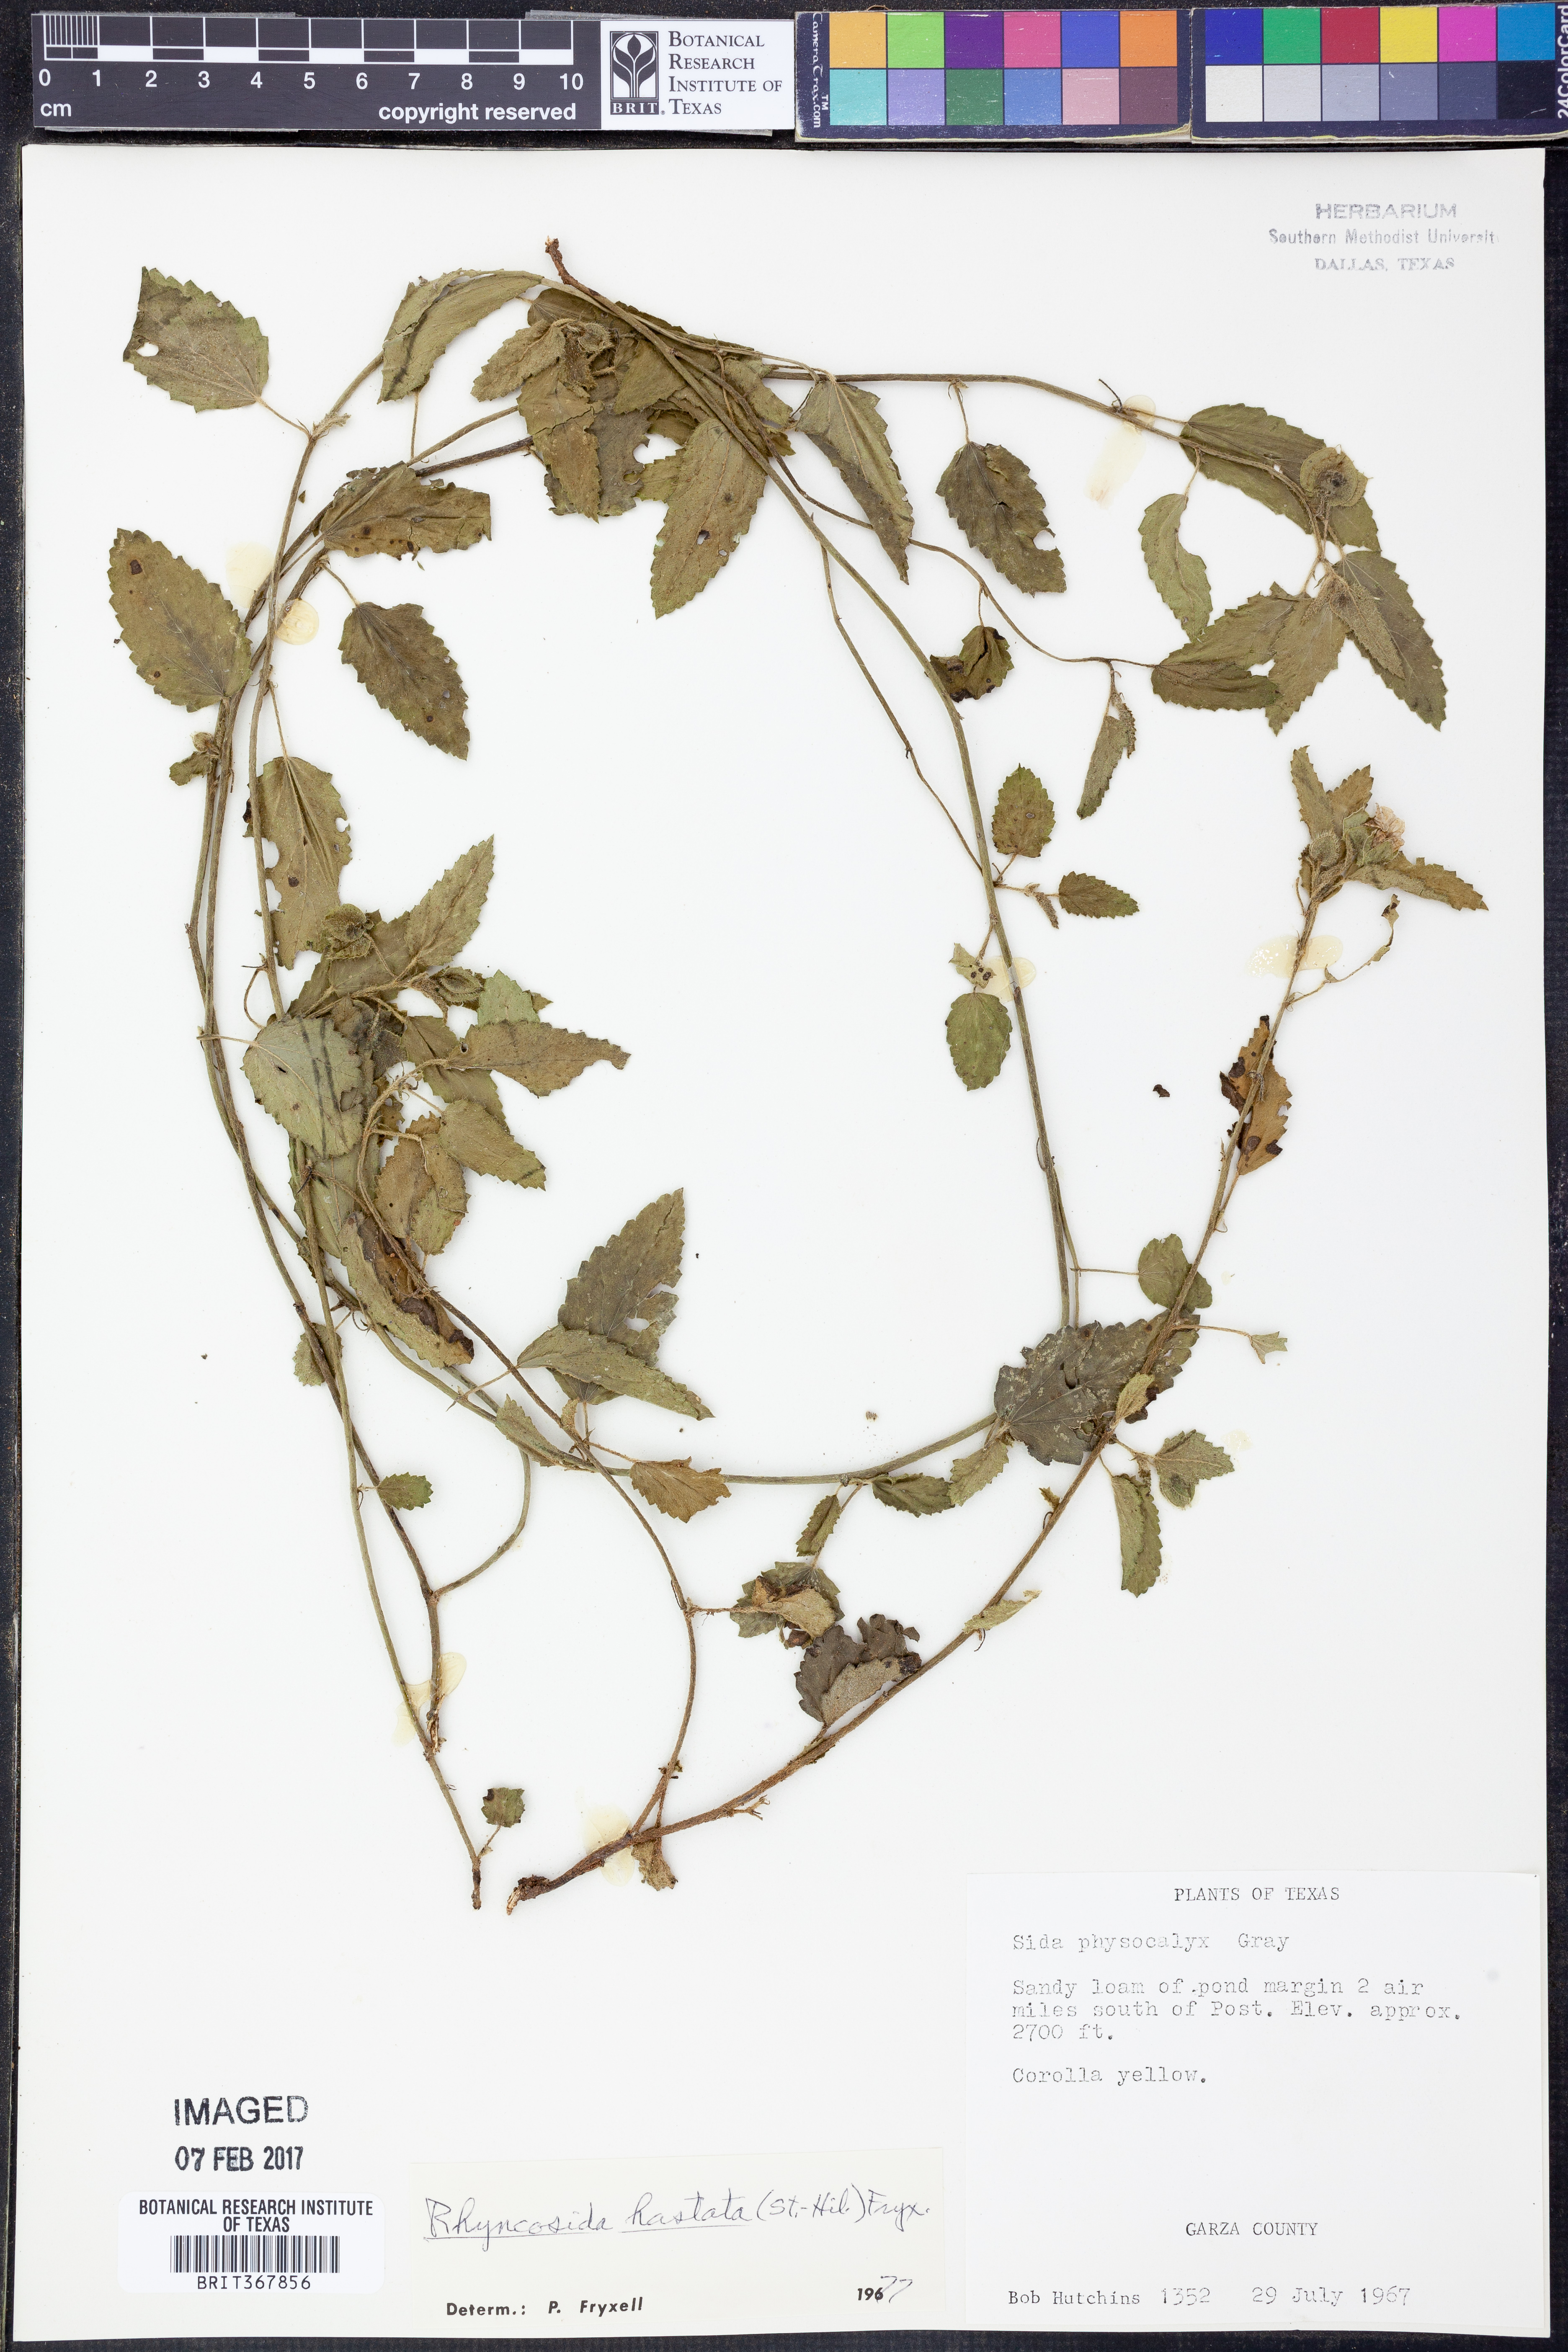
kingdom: Plantae
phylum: Tracheophyta
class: Magnoliopsida
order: Malvales
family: Malvaceae
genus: Rhynchosida
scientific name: Rhynchosida
